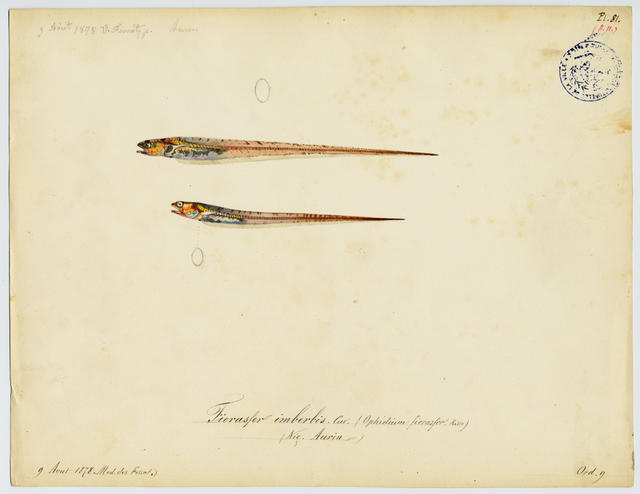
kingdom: Animalia
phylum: Chordata
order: Ophidiiformes
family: Carapidae
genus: Carapus
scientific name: Carapus acus
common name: Pearl fish
